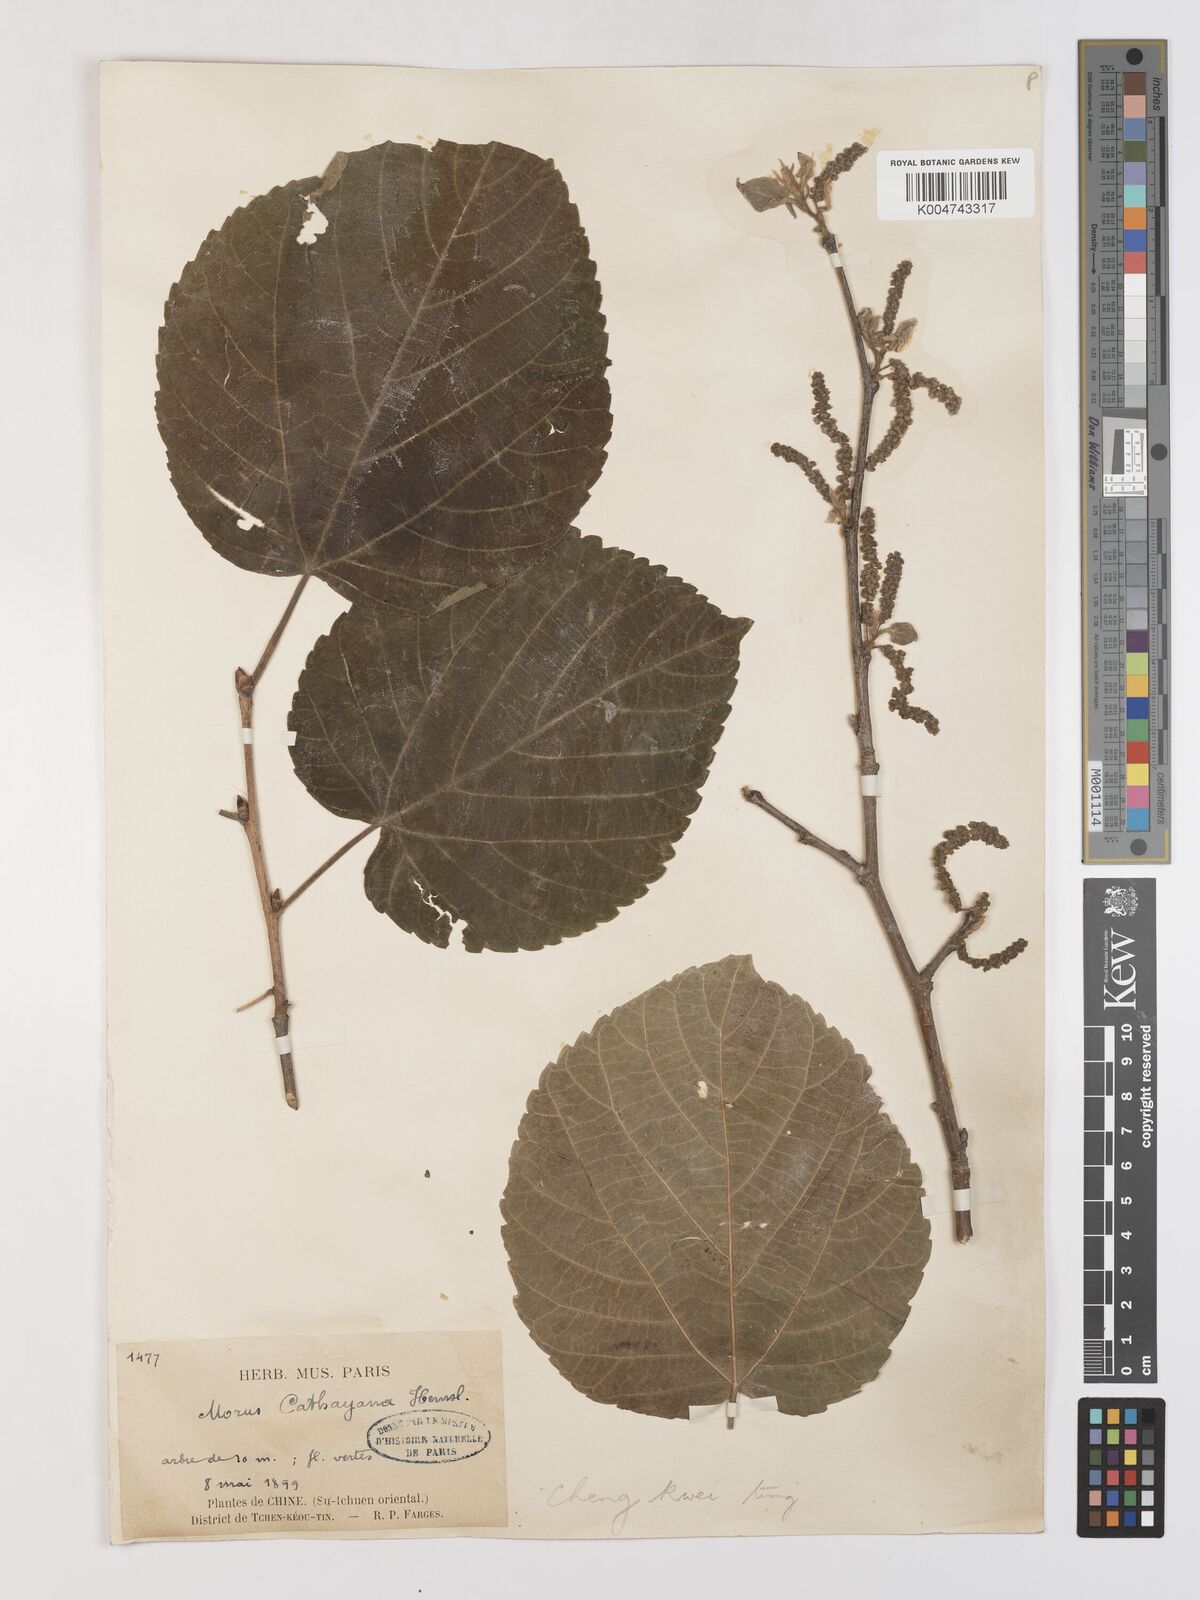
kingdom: Plantae
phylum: Tracheophyta
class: Magnoliopsida
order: Rosales
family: Moraceae
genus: Morus
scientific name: Morus cathayana
